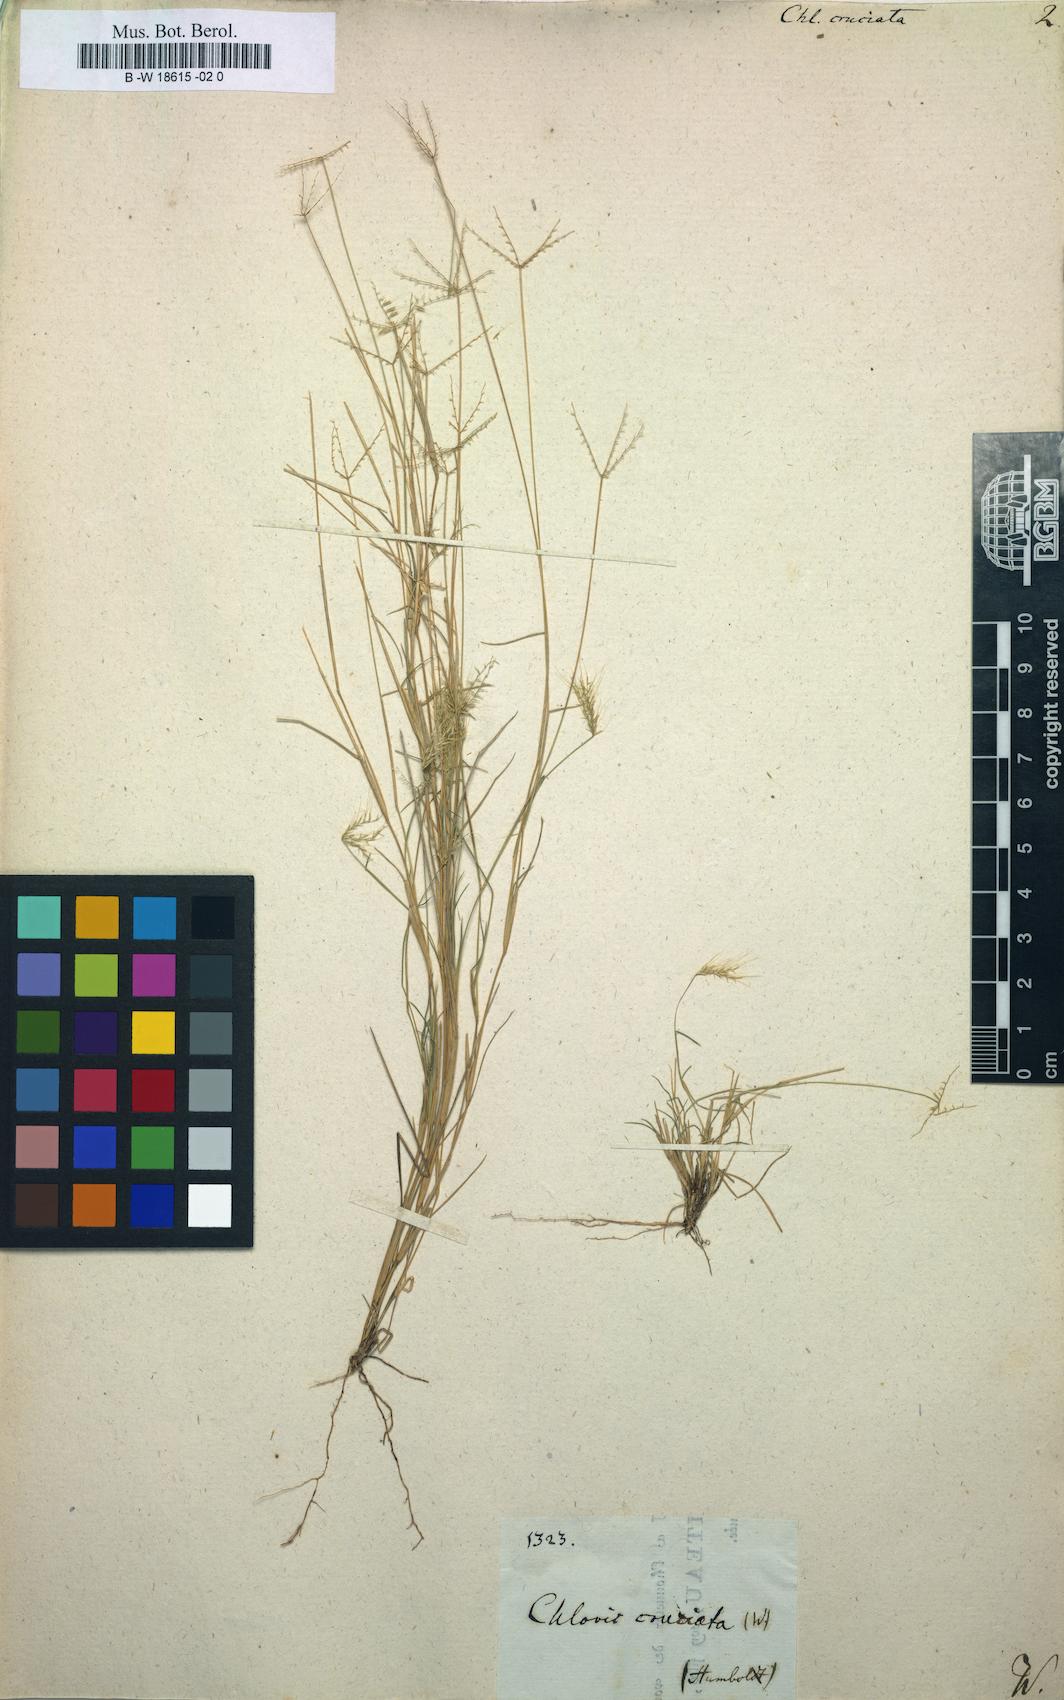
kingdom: Plantae
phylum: Tracheophyta
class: Liliopsida
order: Poales
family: Poaceae
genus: Chloris
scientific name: Chloris cruciata
